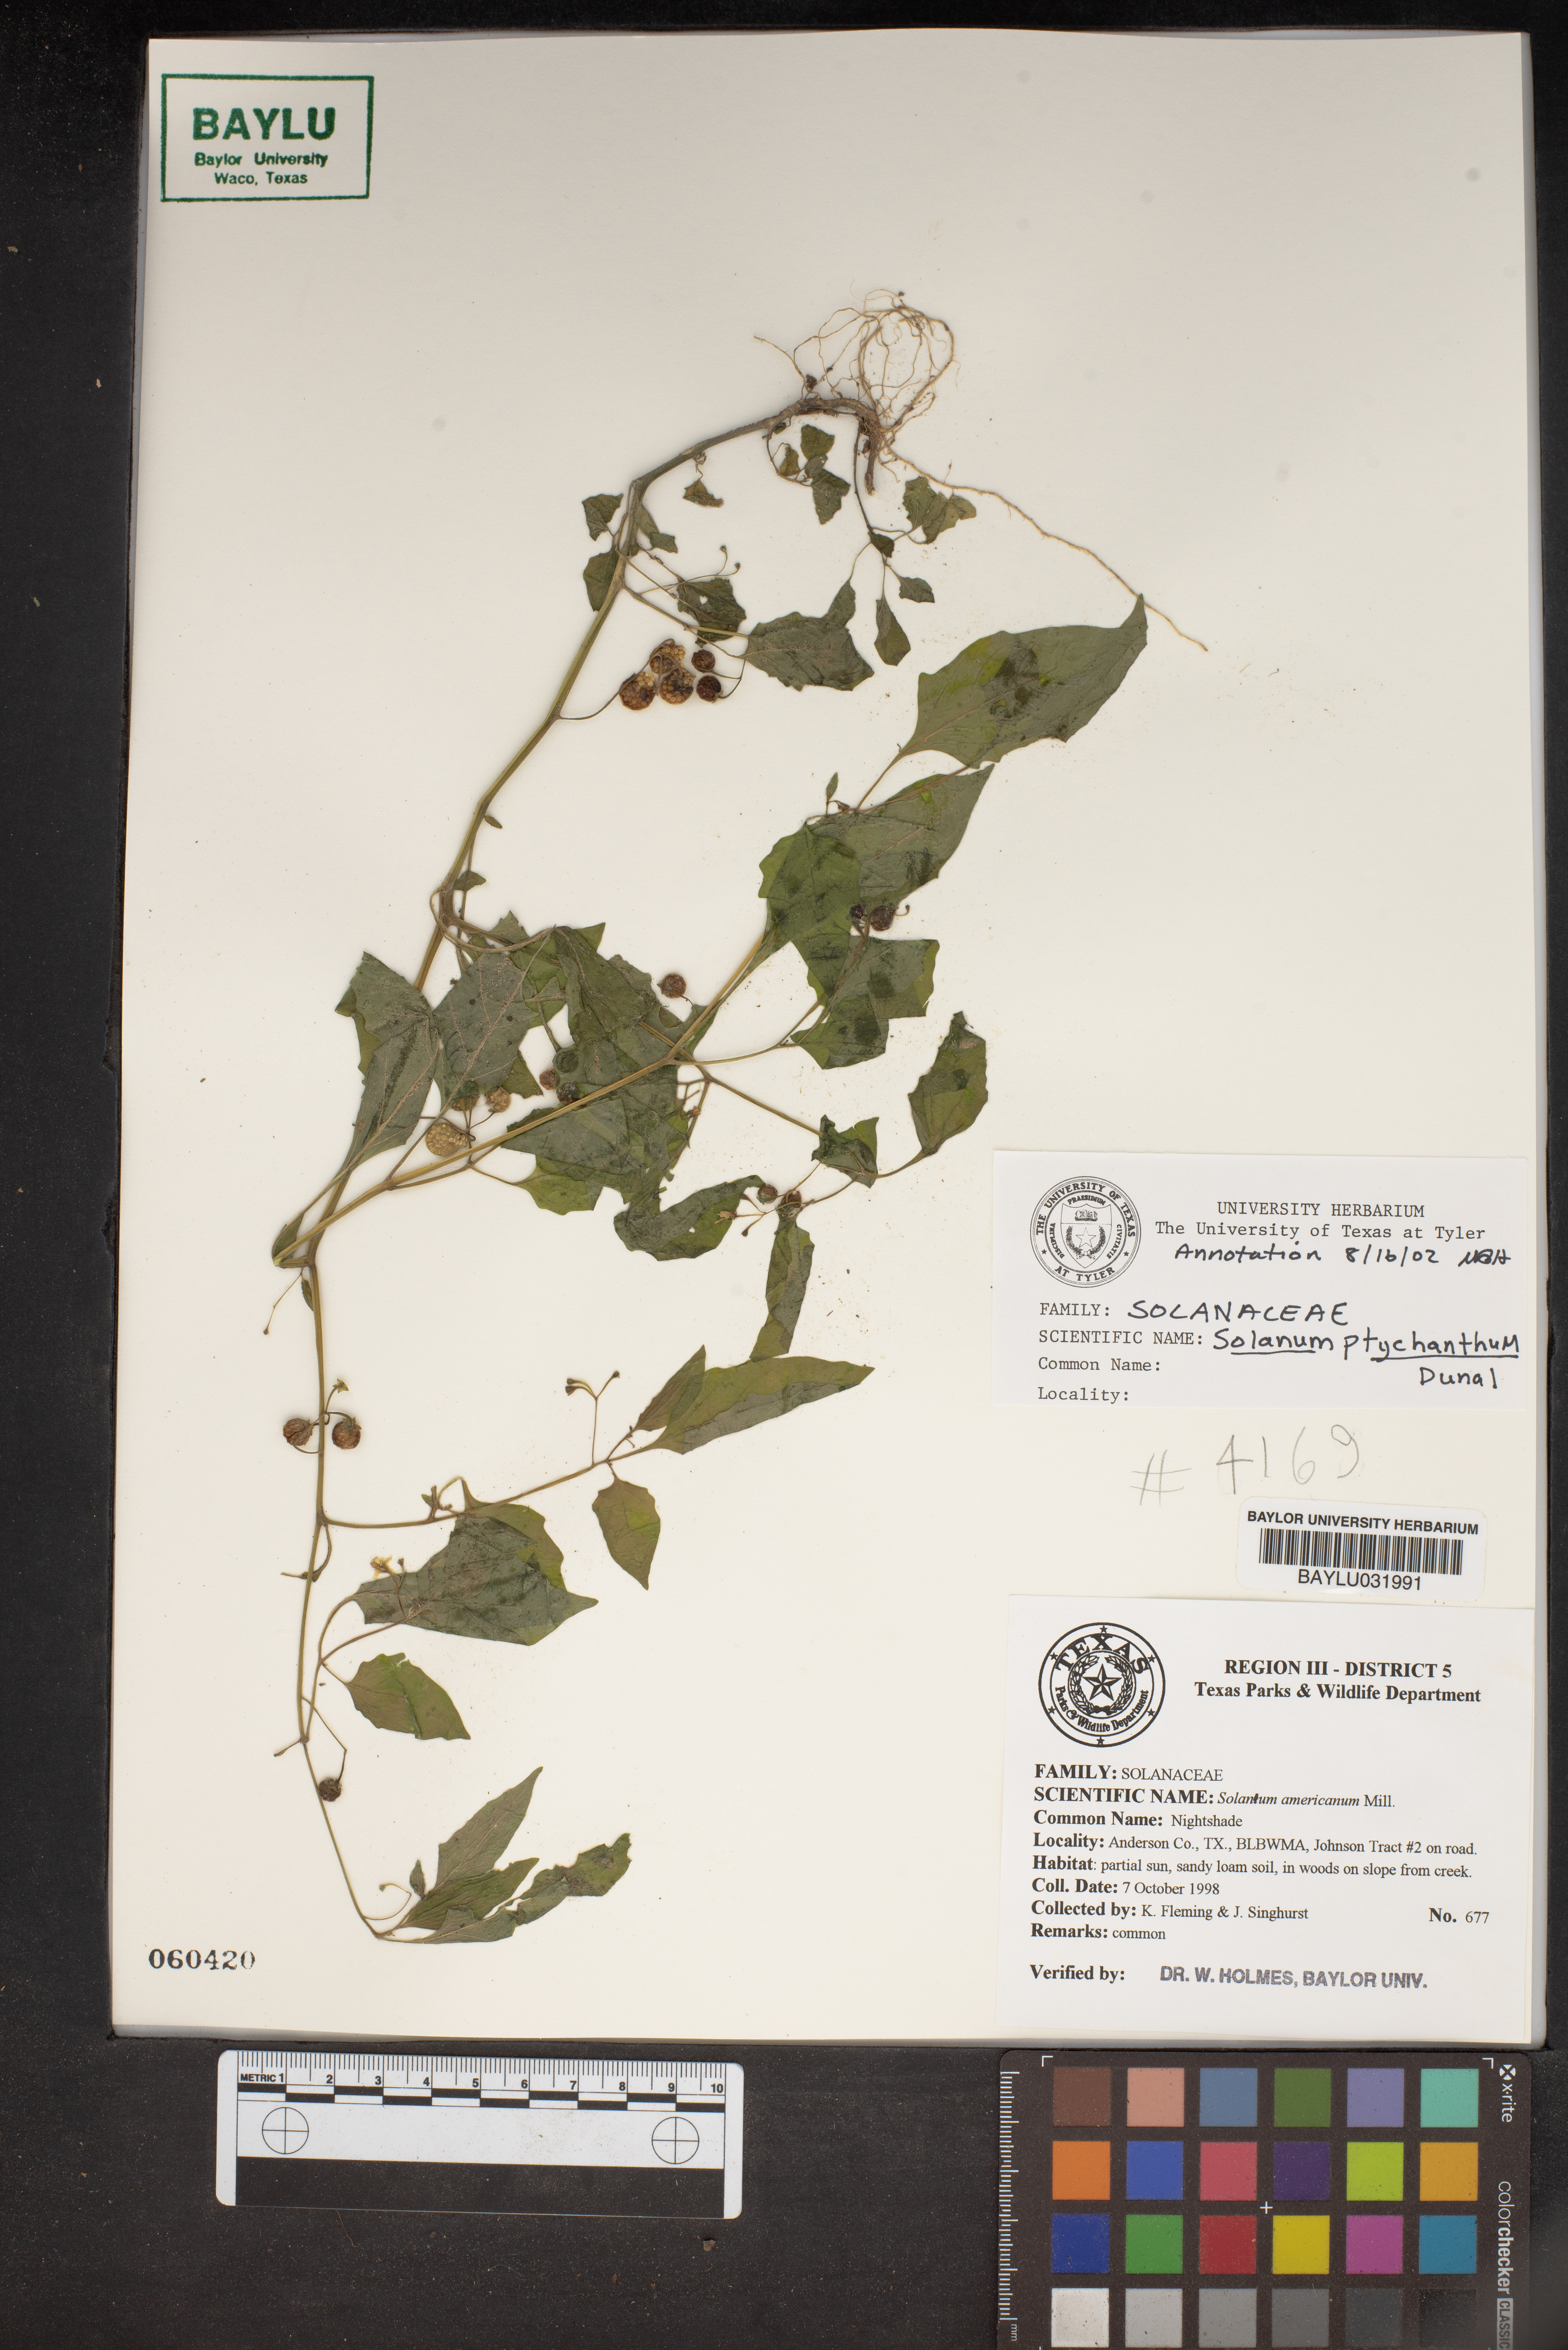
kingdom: Plantae
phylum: Tracheophyta
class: Magnoliopsida
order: Solanales
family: Solanaceae
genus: Solanum
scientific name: Solanum americanum
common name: American black nightshade
